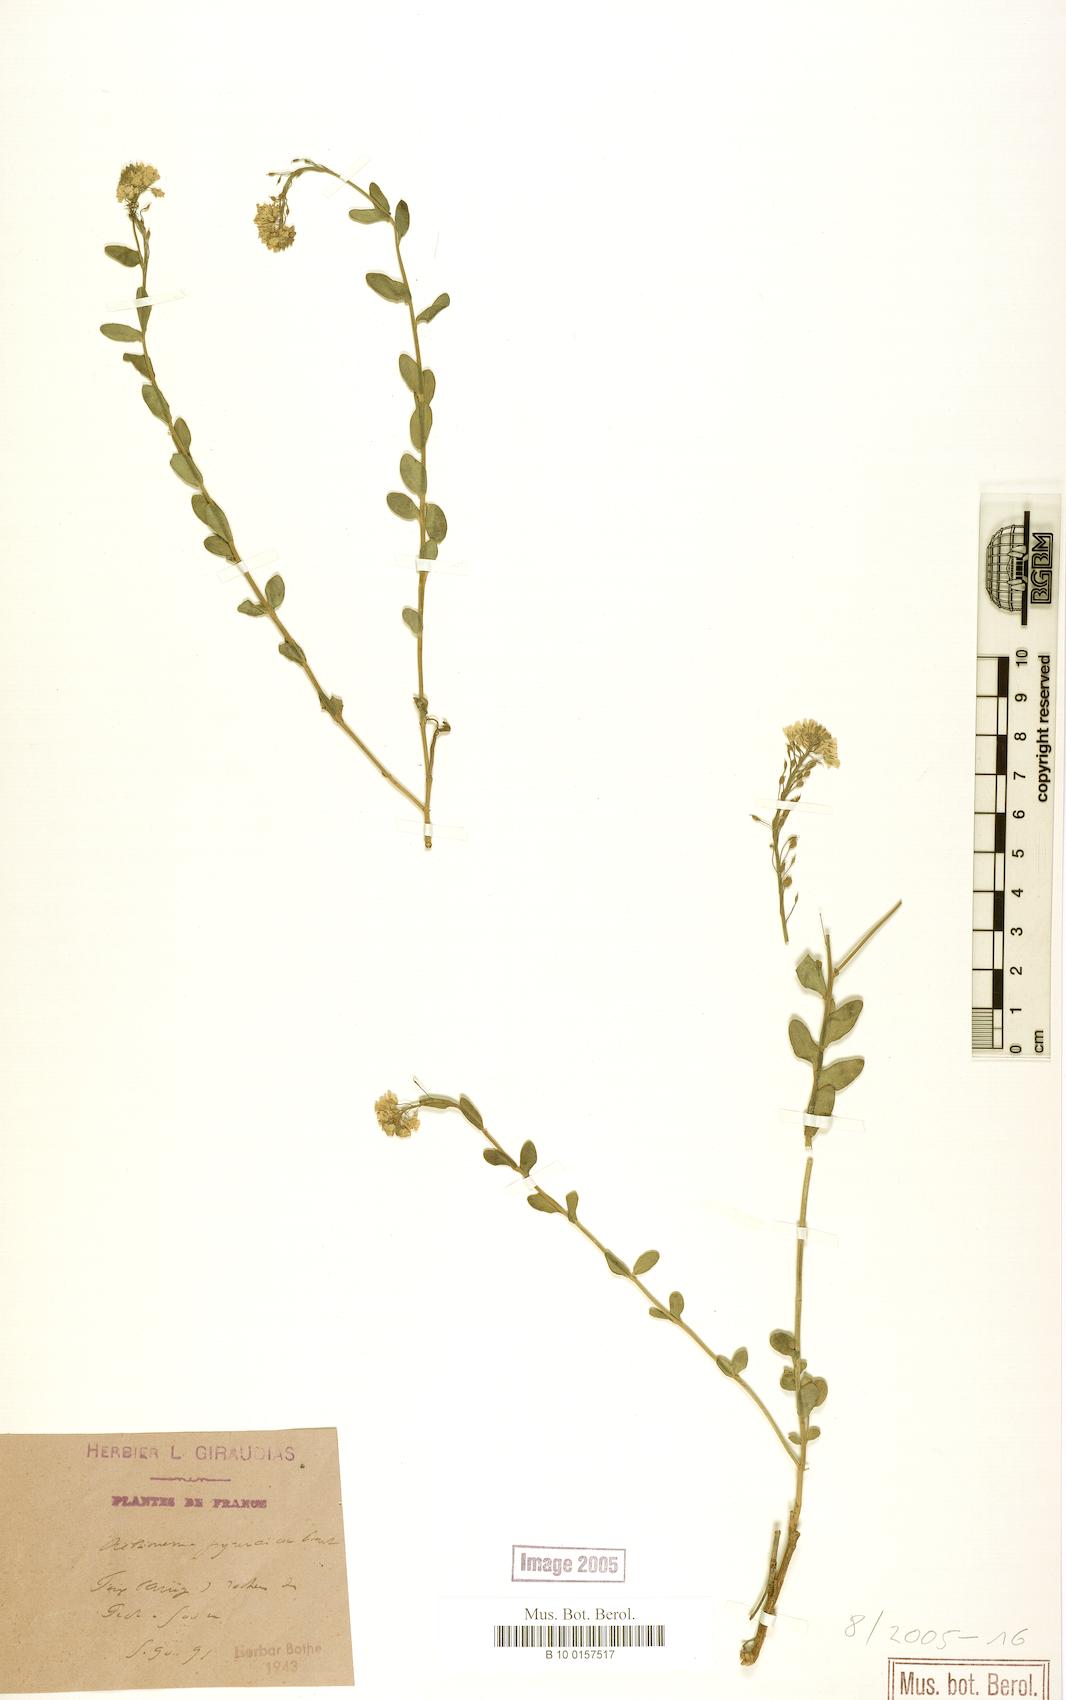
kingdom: Plantae
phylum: Tracheophyta
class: Magnoliopsida
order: Brassicales
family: Brassicaceae
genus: Aethionema
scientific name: Aethionema saxatile
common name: Burnt candytuft
